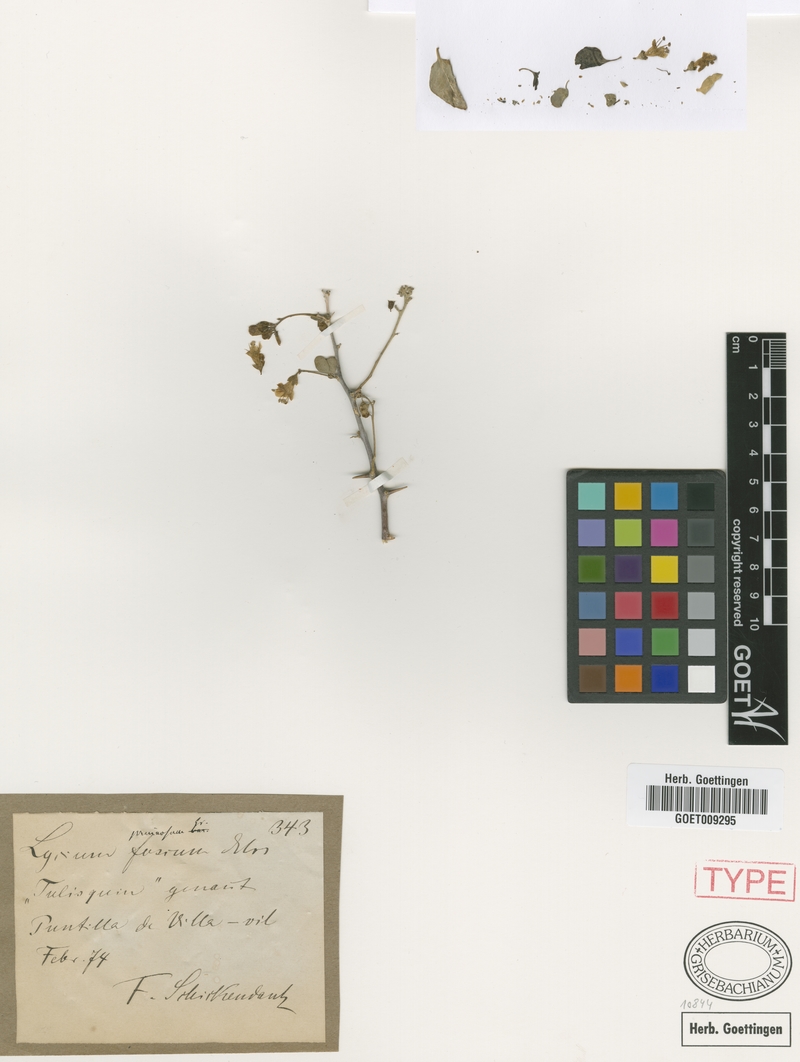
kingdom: Plantae
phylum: Tracheophyta
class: Magnoliopsida
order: Solanales
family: Solanaceae
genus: Lycium
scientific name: Lycium americanum
